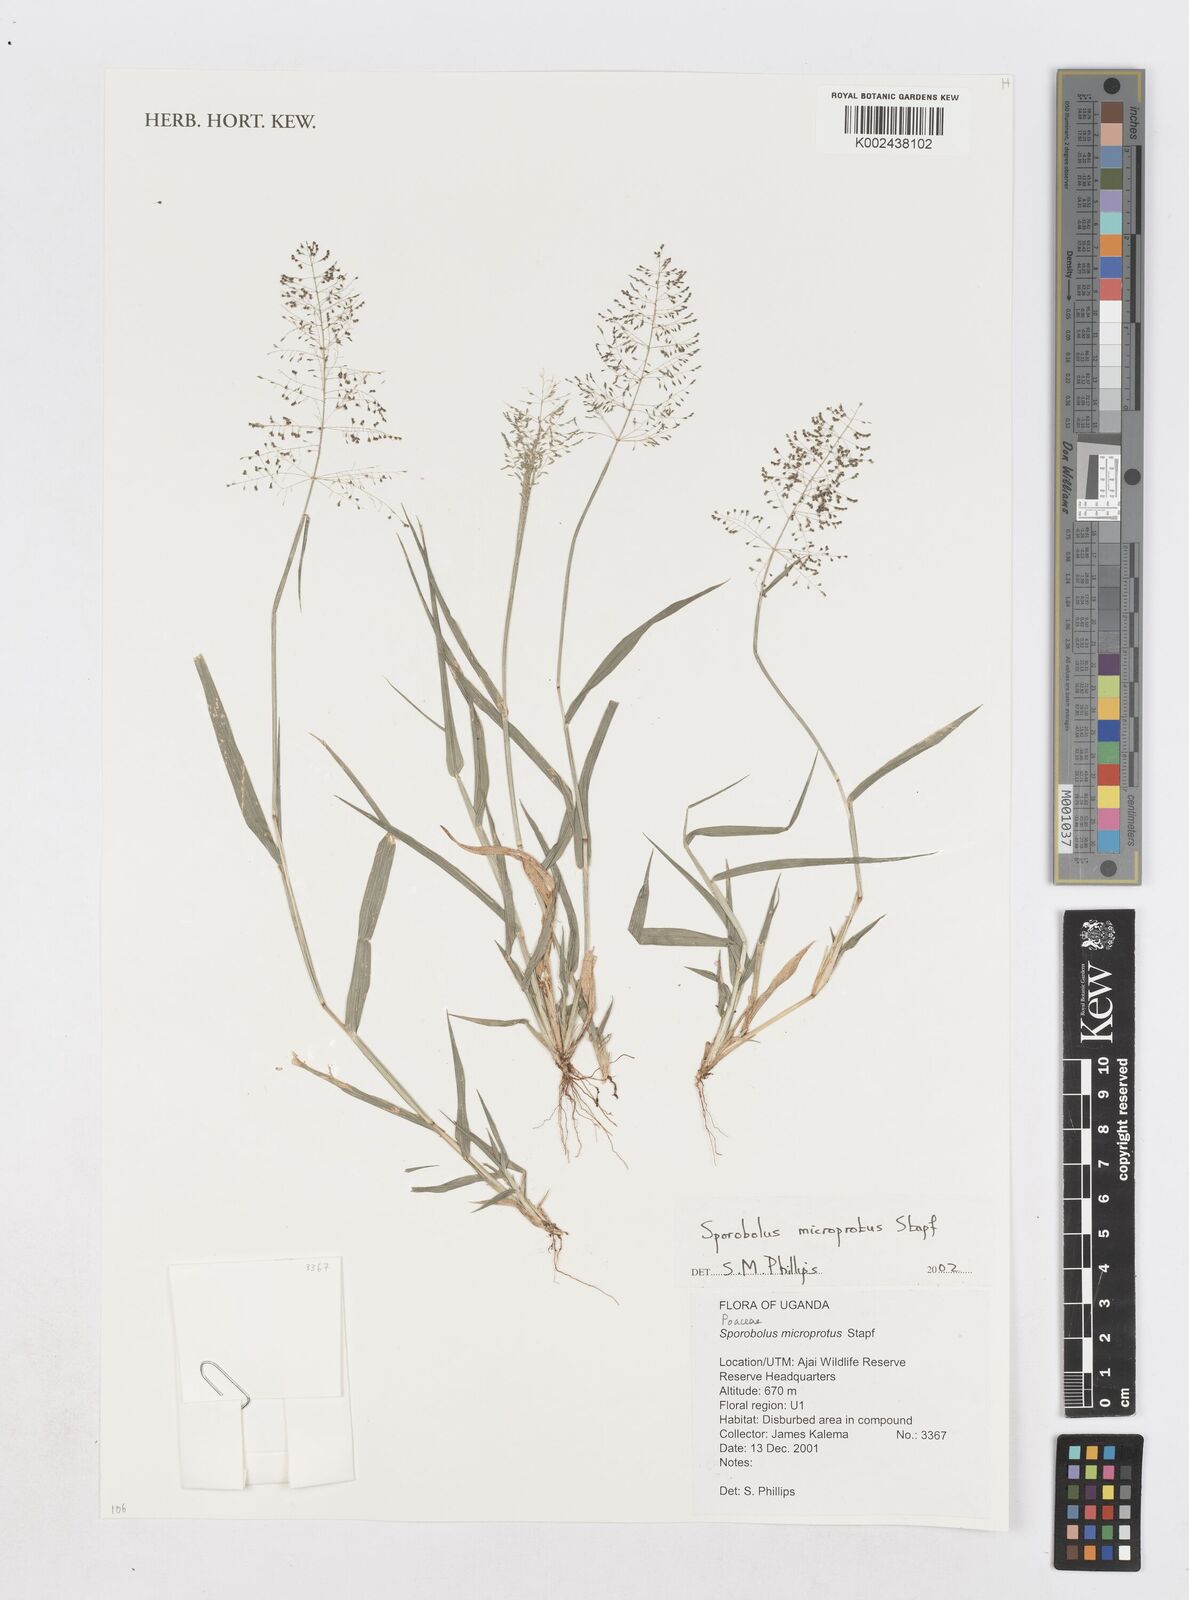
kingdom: Plantae
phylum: Tracheophyta
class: Liliopsida
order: Poales
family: Poaceae
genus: Sporobolus
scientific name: Sporobolus microprotus
